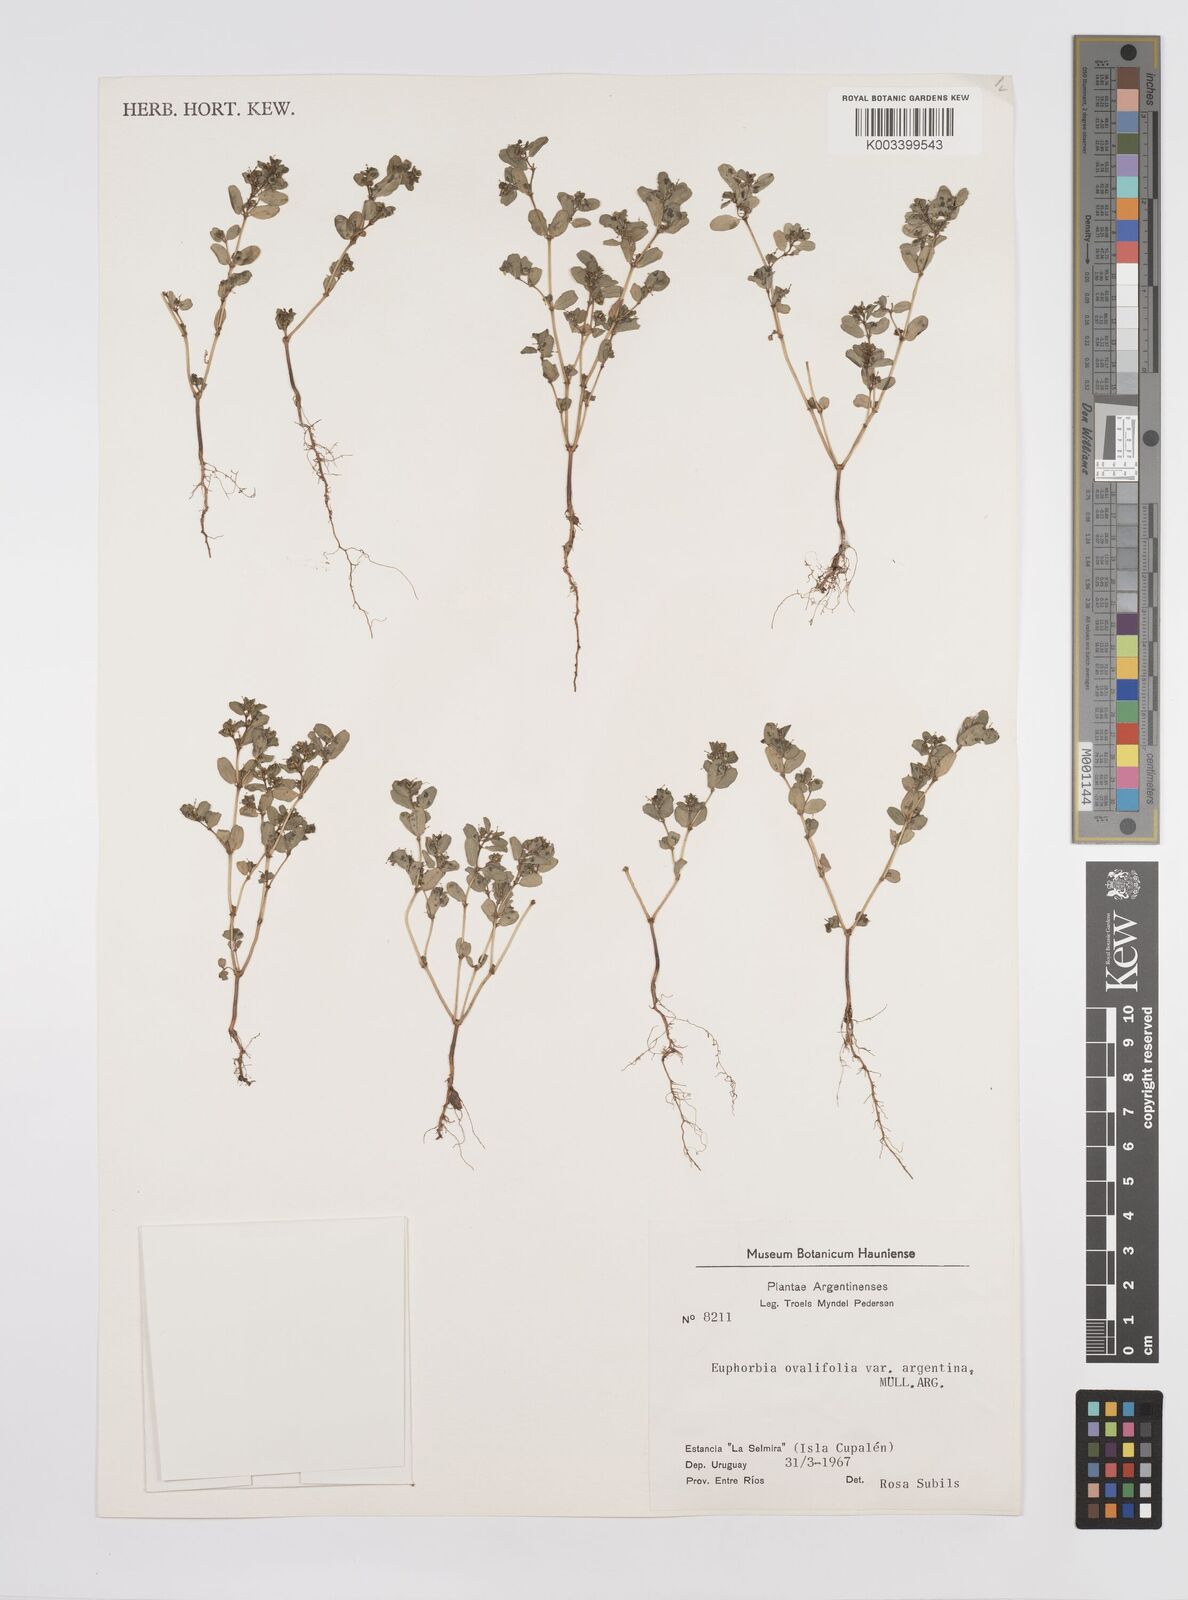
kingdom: Plantae
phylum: Tracheophyta
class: Magnoliopsida
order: Malpighiales
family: Euphorbiaceae
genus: Euphorbia
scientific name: Euphorbia klotzschii
